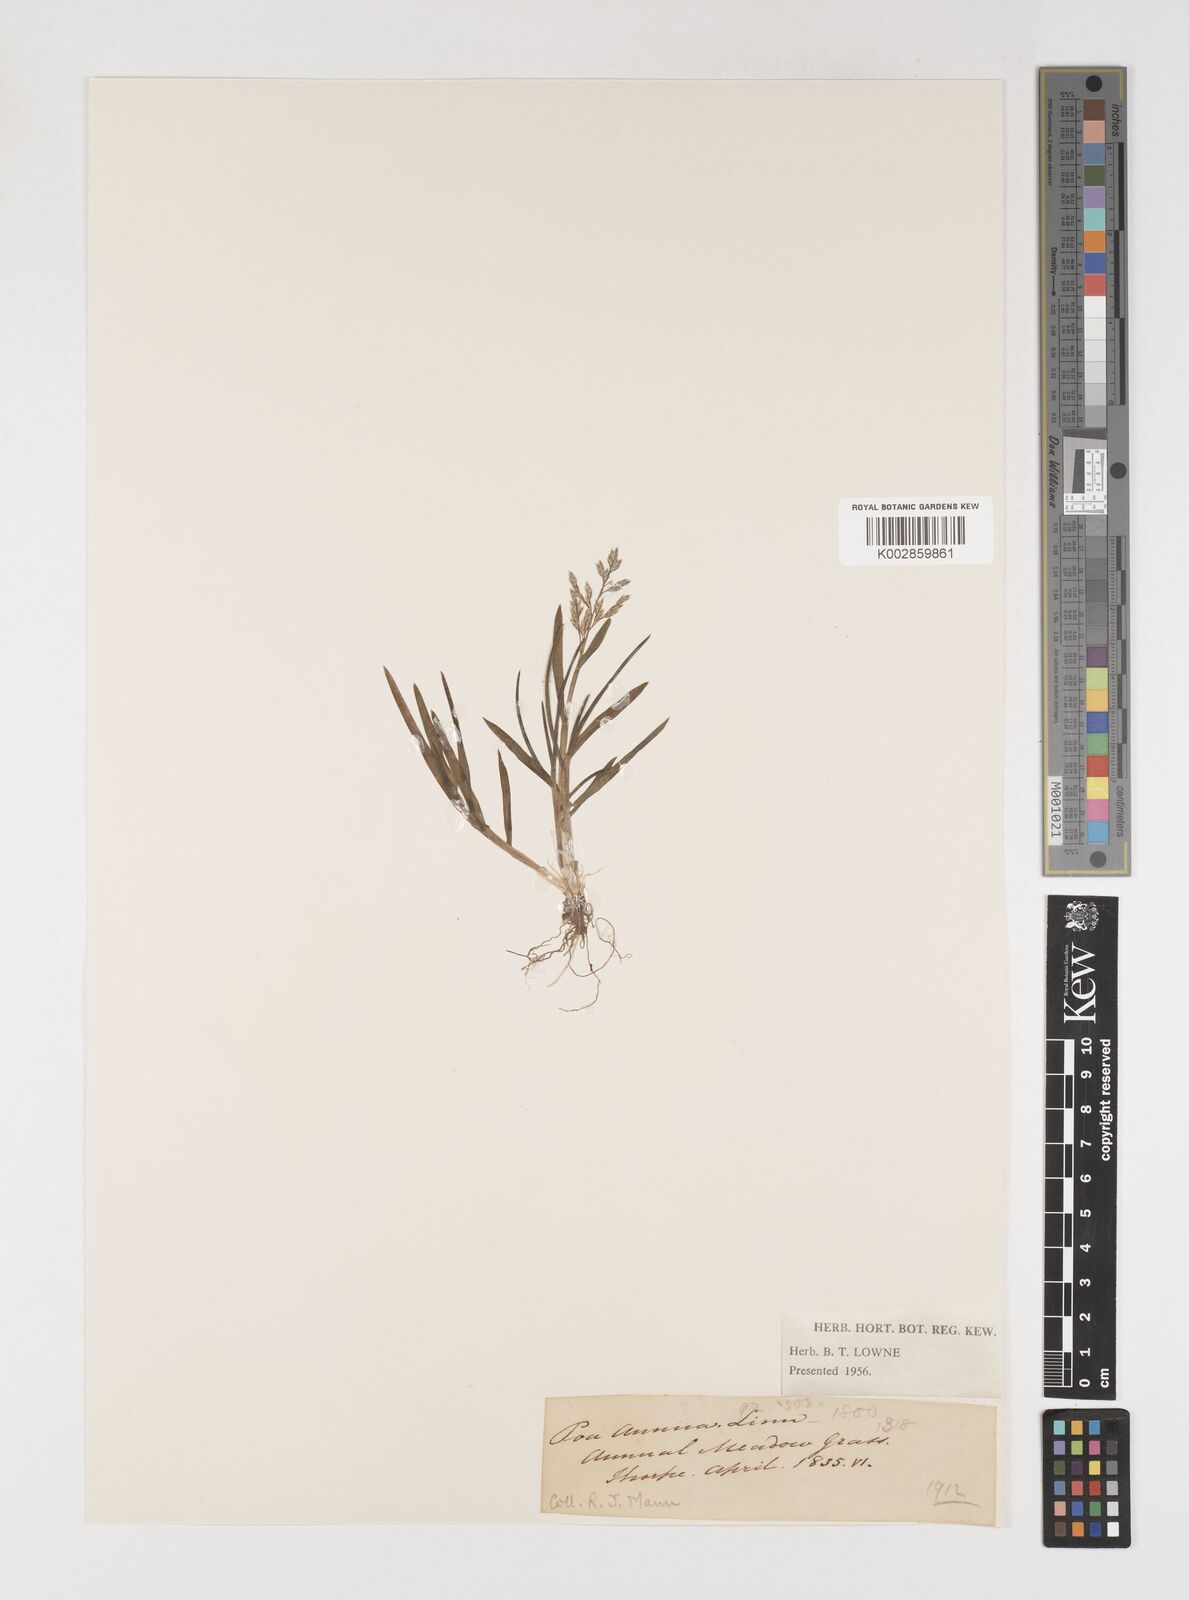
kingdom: Plantae
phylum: Tracheophyta
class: Liliopsida
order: Poales
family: Poaceae
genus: Poa
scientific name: Poa annua
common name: Annual bluegrass
